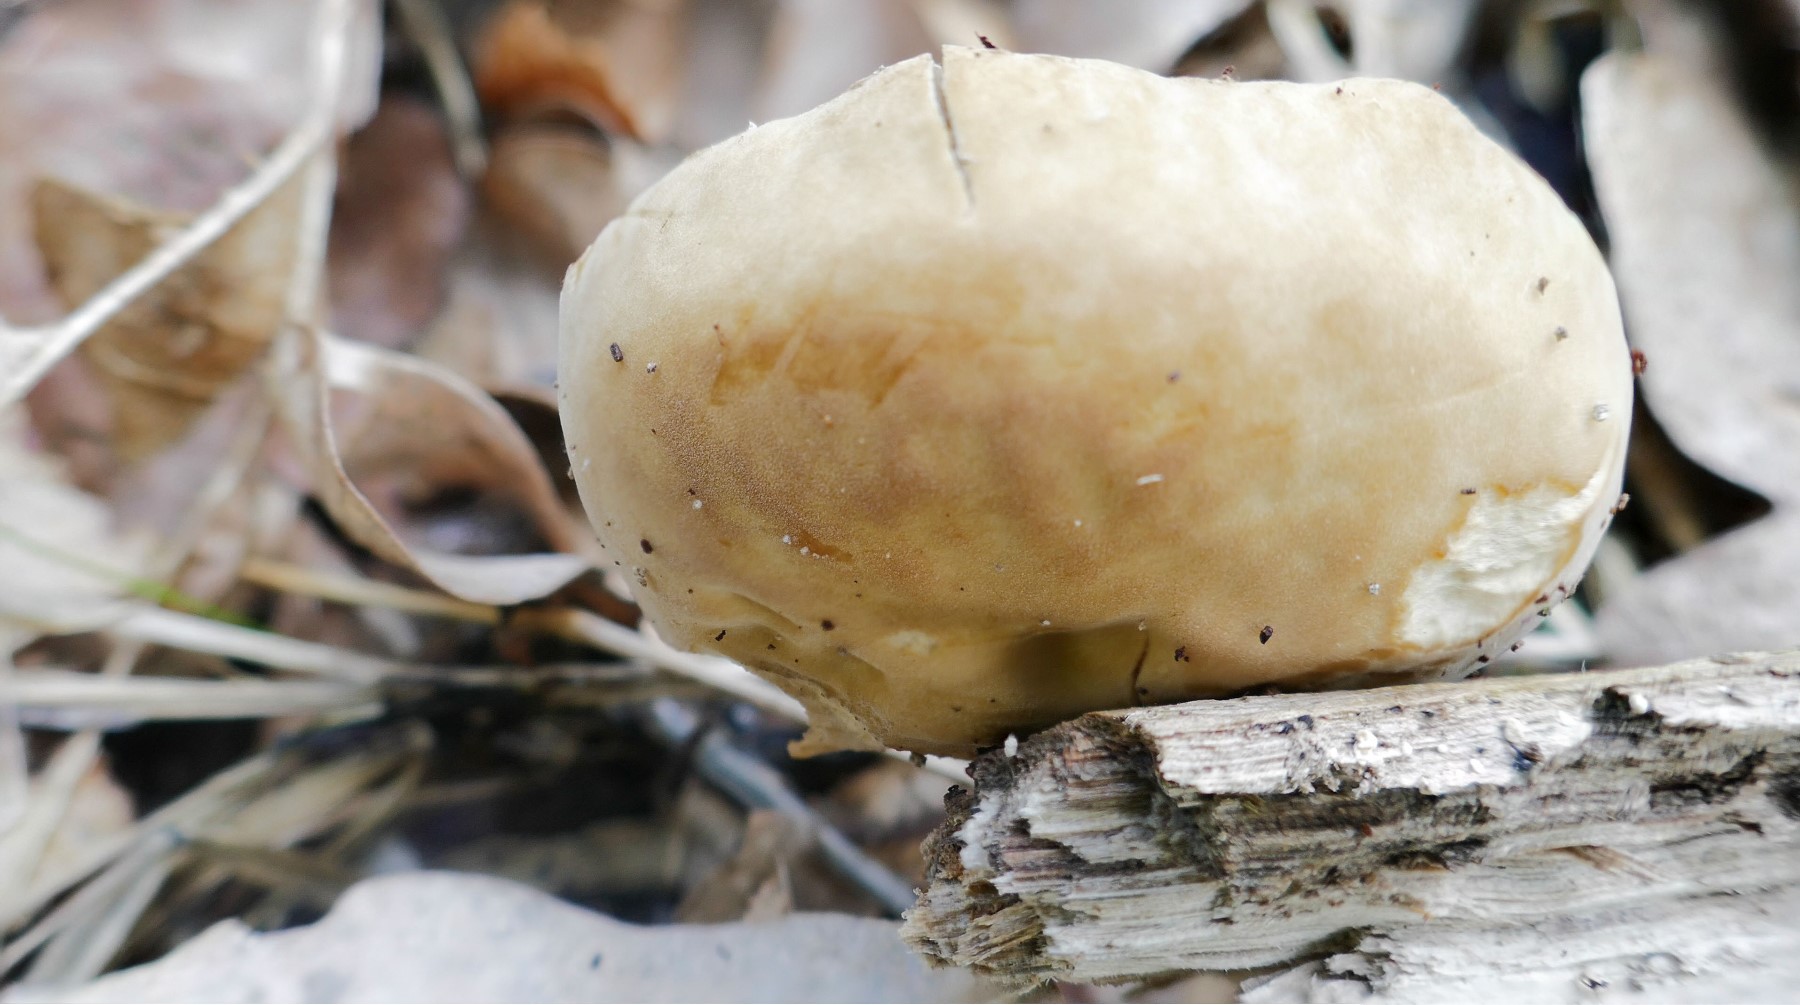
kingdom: Fungi
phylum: Basidiomycota
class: Agaricomycetes
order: Agaricales
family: Crepidotaceae
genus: Simocybe
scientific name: Simocybe sumptuosa
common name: stor skyggehat
